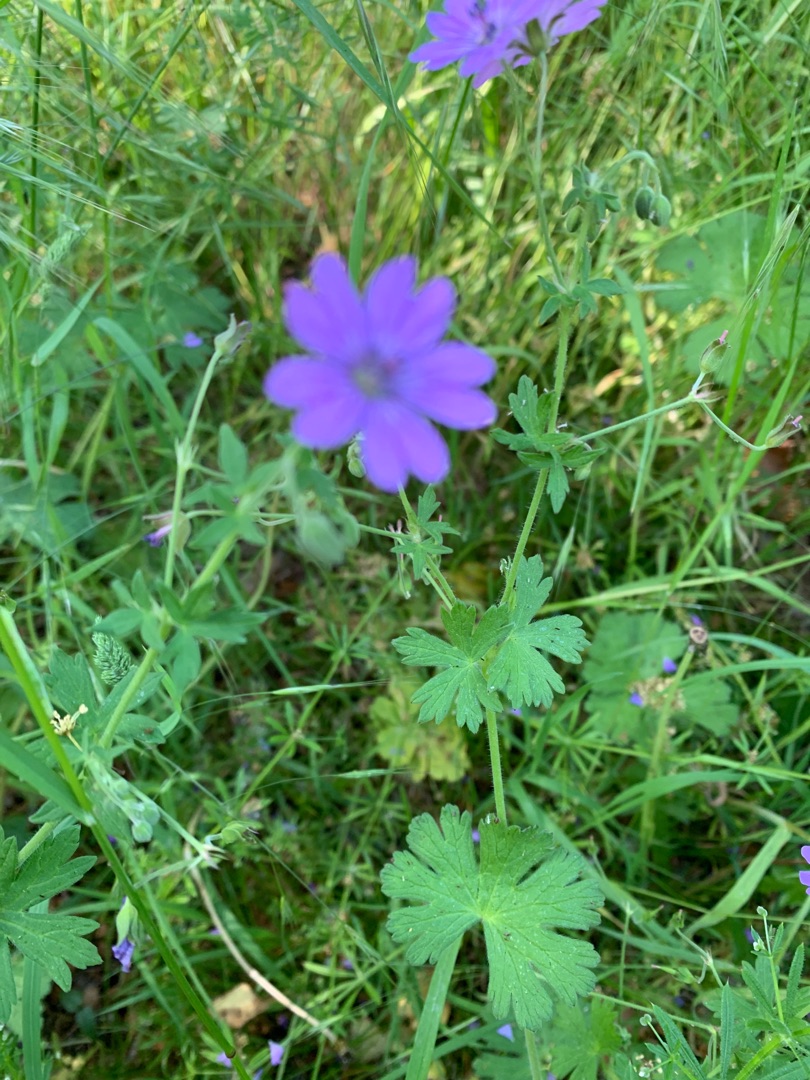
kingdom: Plantae
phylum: Tracheophyta
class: Magnoliopsida
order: Geraniales
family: Geraniaceae
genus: Geranium
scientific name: Geranium pyrenaicum
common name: Pyrenæisk storkenæb
